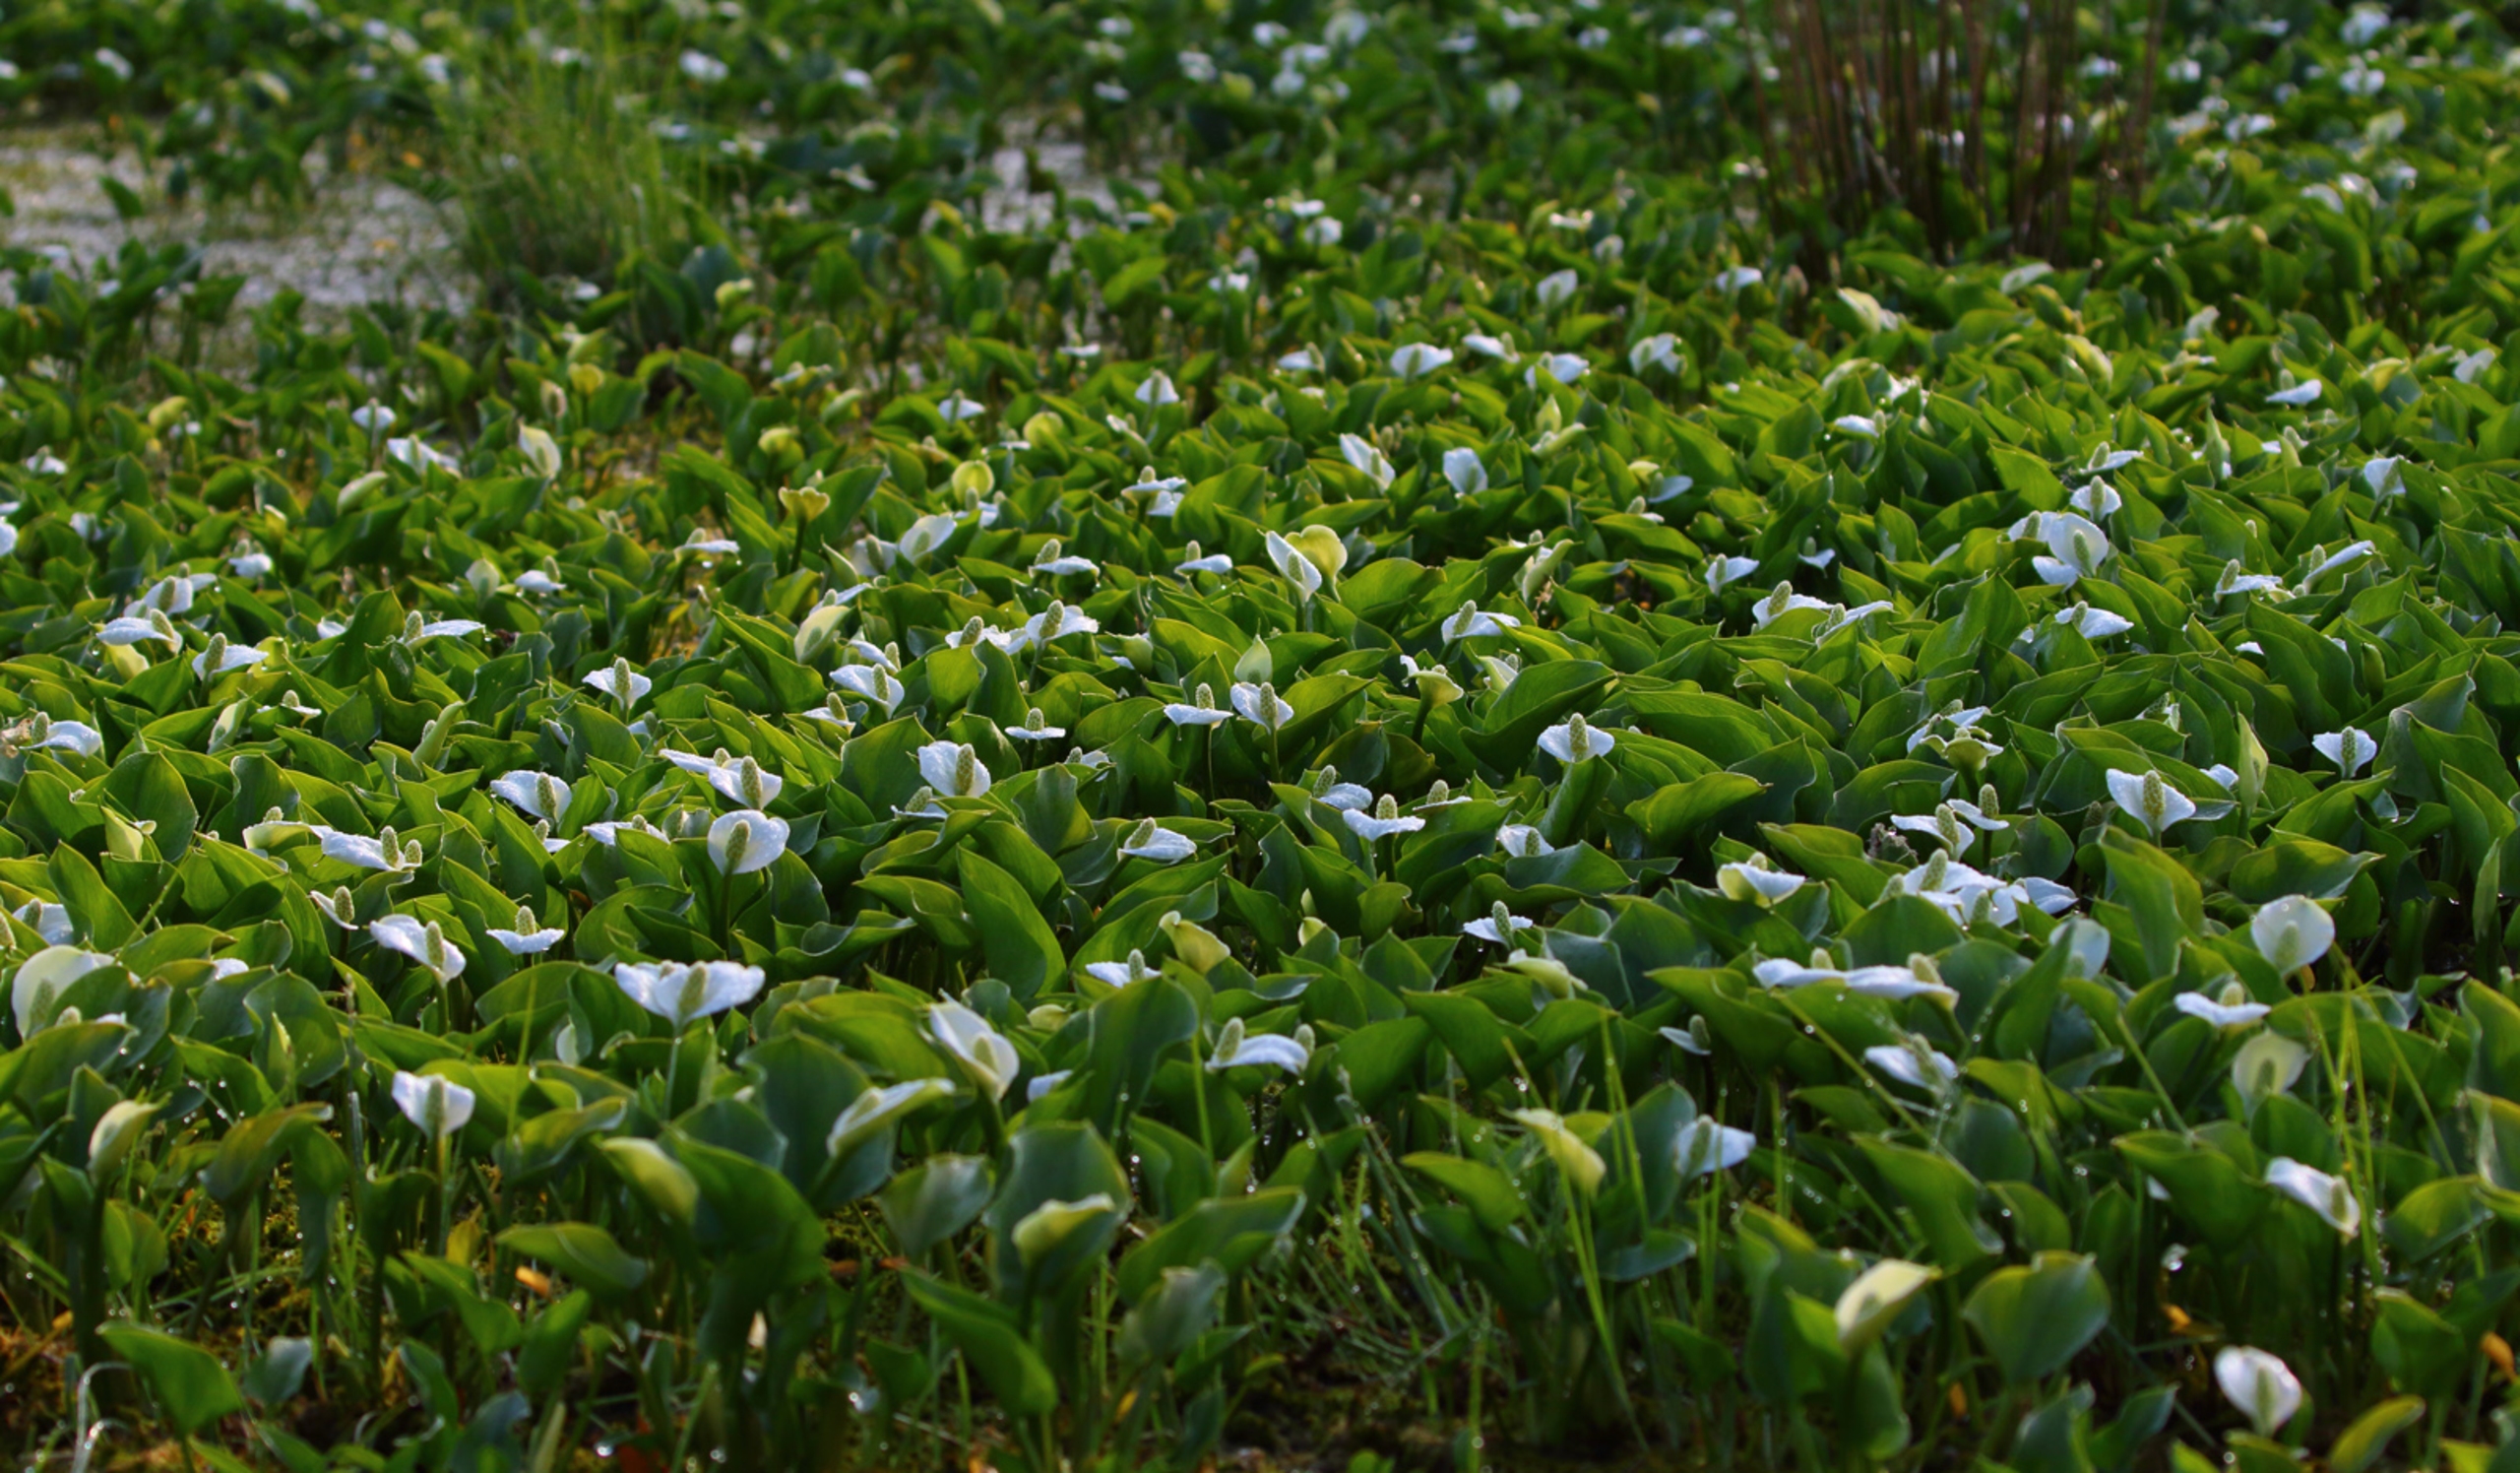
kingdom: Plantae
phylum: Tracheophyta
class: Liliopsida
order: Alismatales
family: Araceae
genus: Calla
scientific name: Calla palustris
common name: Kærmysse
